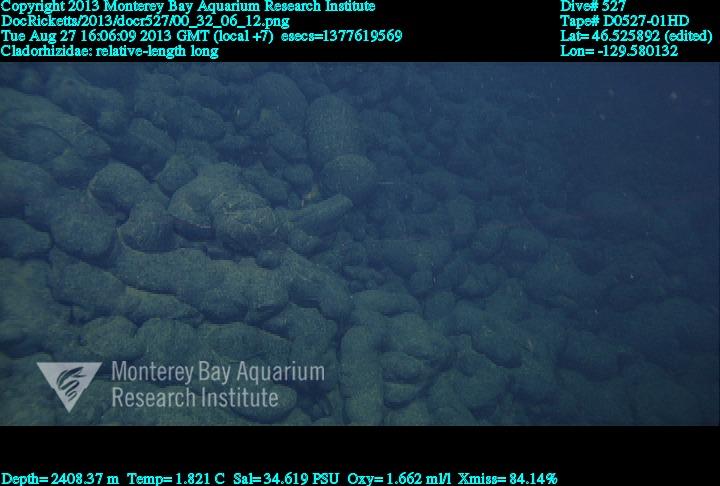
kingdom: Animalia
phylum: Porifera
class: Demospongiae
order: Poecilosclerida
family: Cladorhizidae
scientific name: Cladorhizidae
